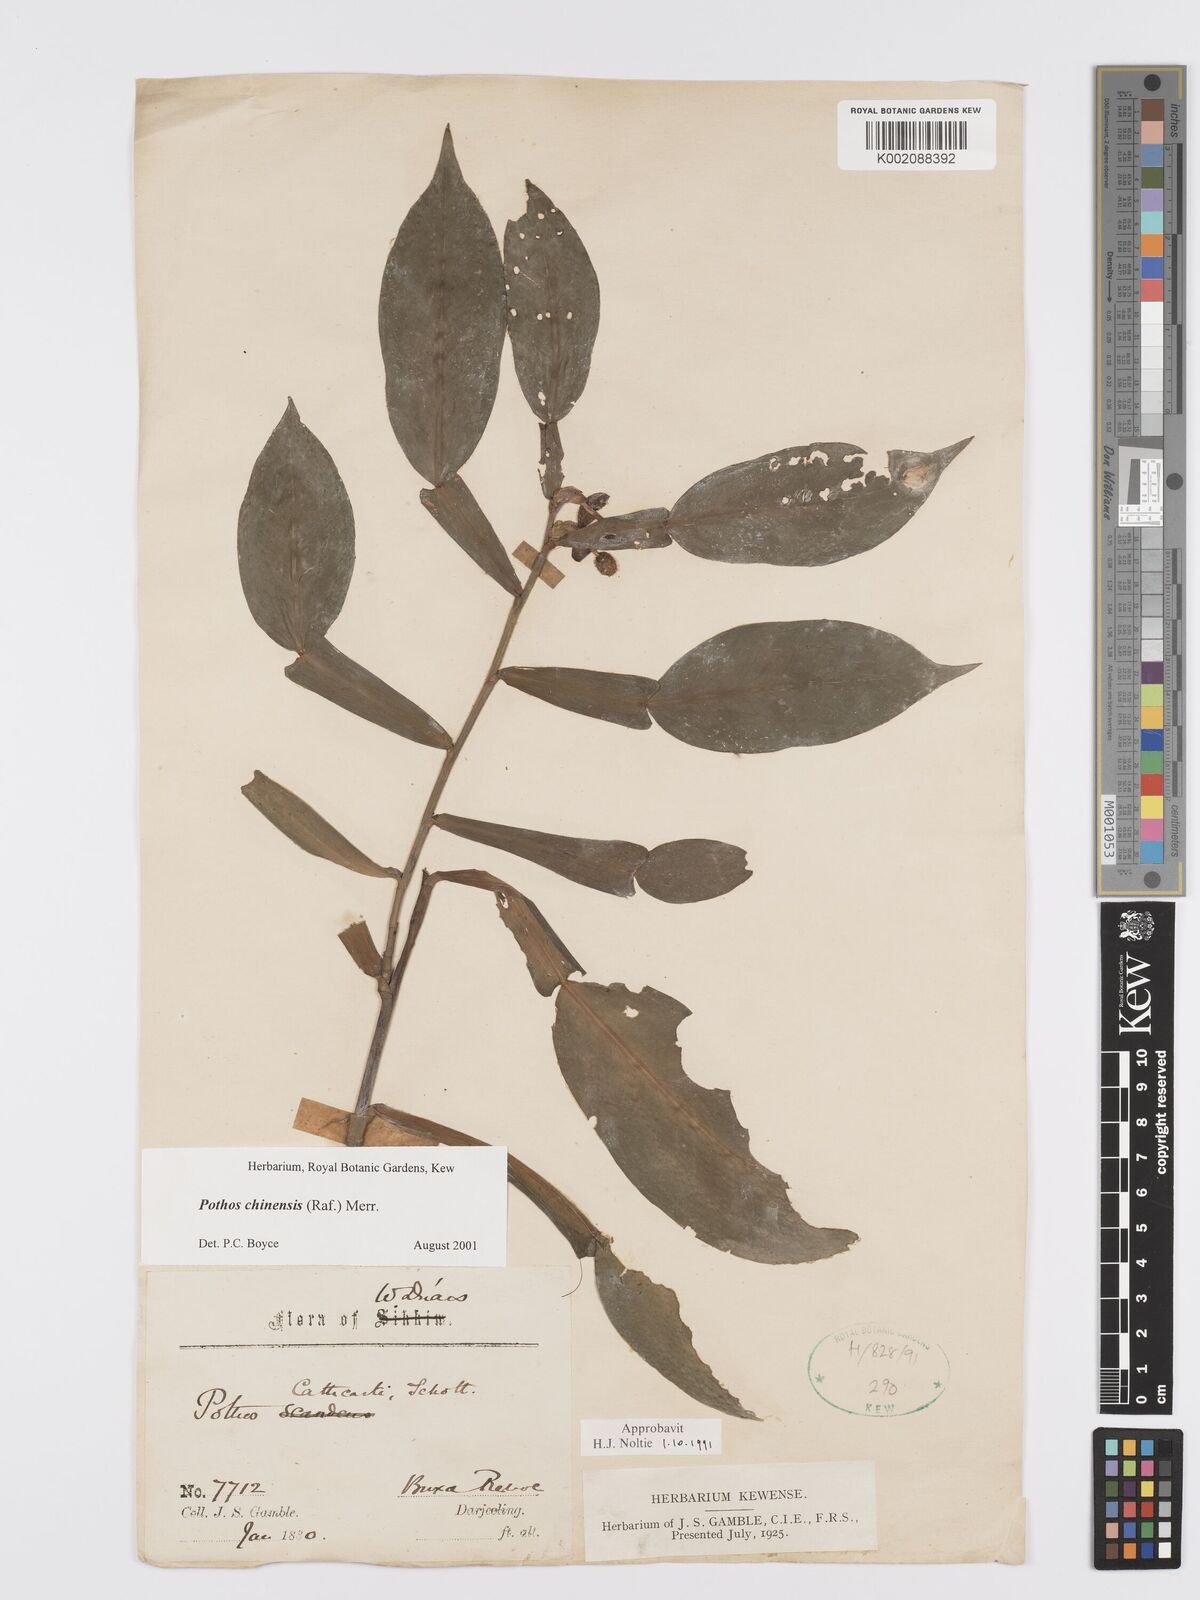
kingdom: Plantae
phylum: Tracheophyta
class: Liliopsida
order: Alismatales
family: Araceae
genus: Pothos
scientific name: Pothos chinensis
